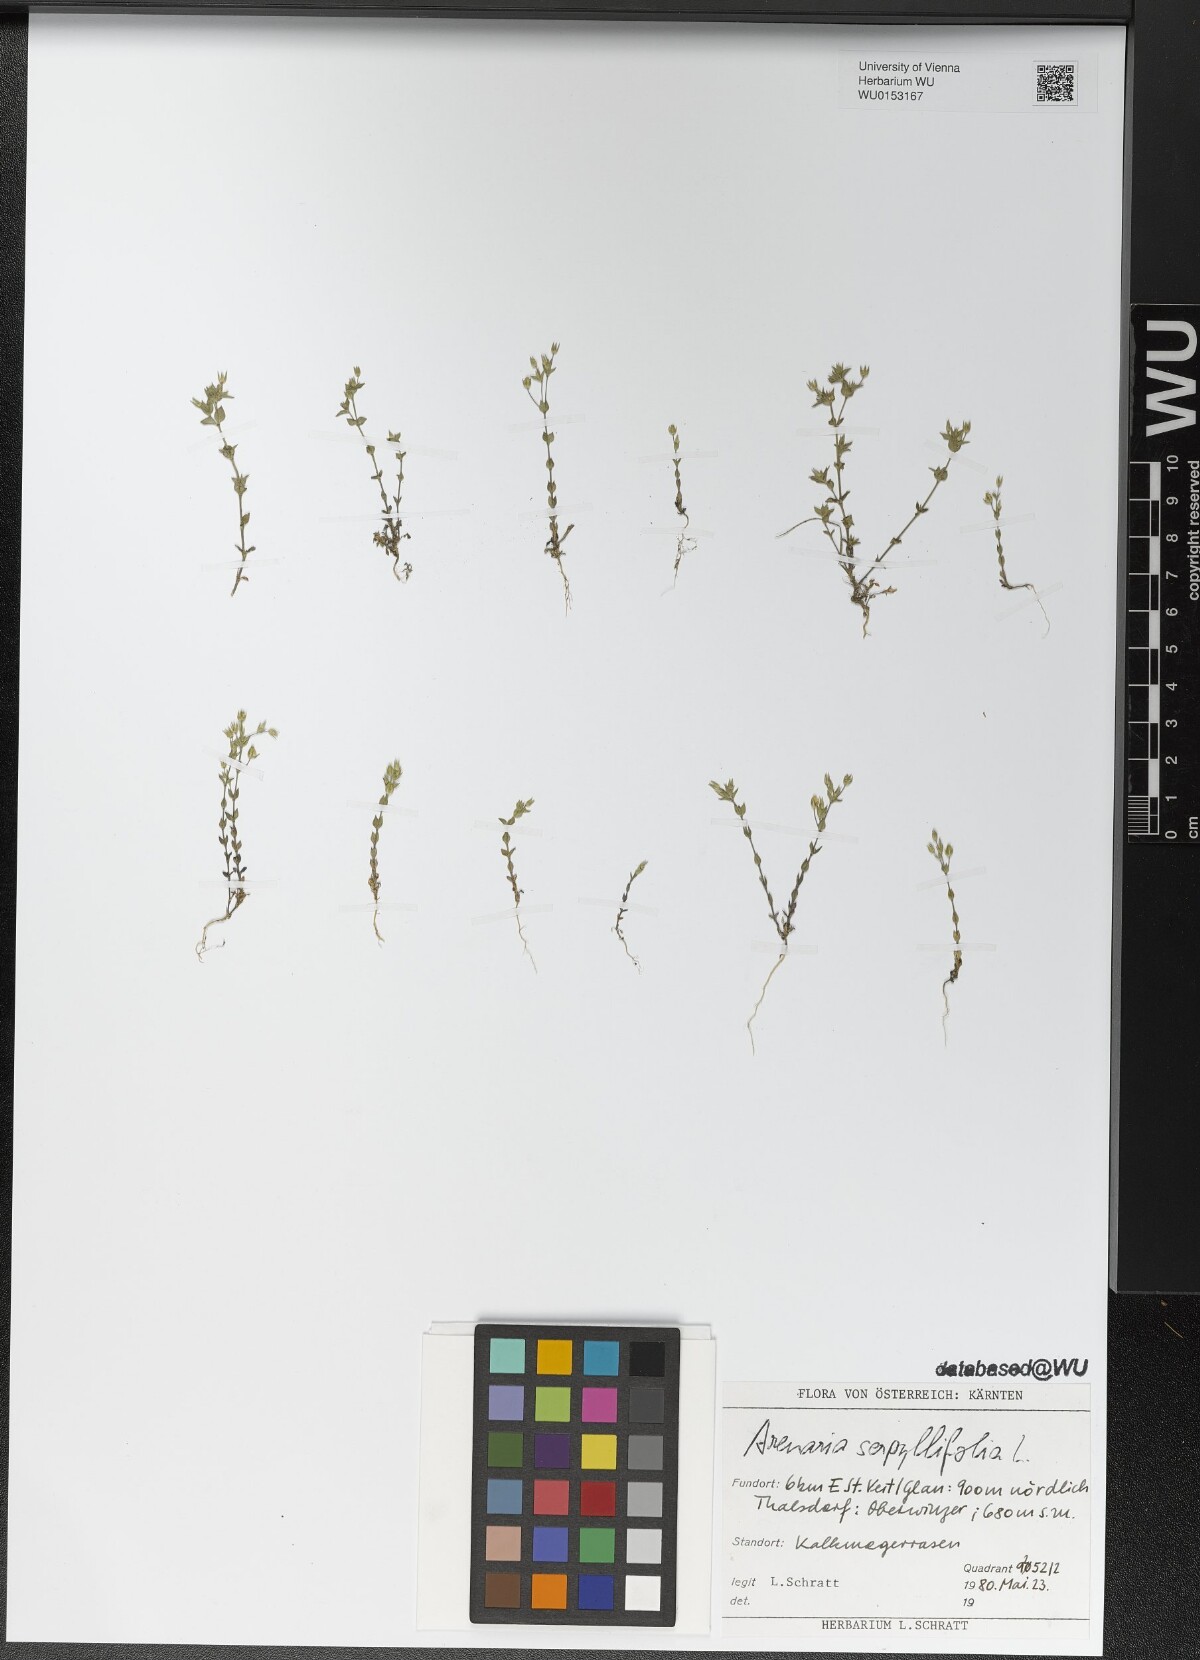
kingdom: Plantae
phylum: Tracheophyta
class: Magnoliopsida
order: Caryophyllales
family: Caryophyllaceae
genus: Arenaria
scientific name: Arenaria serpyllifolia
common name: Thyme-leaved sandwort
